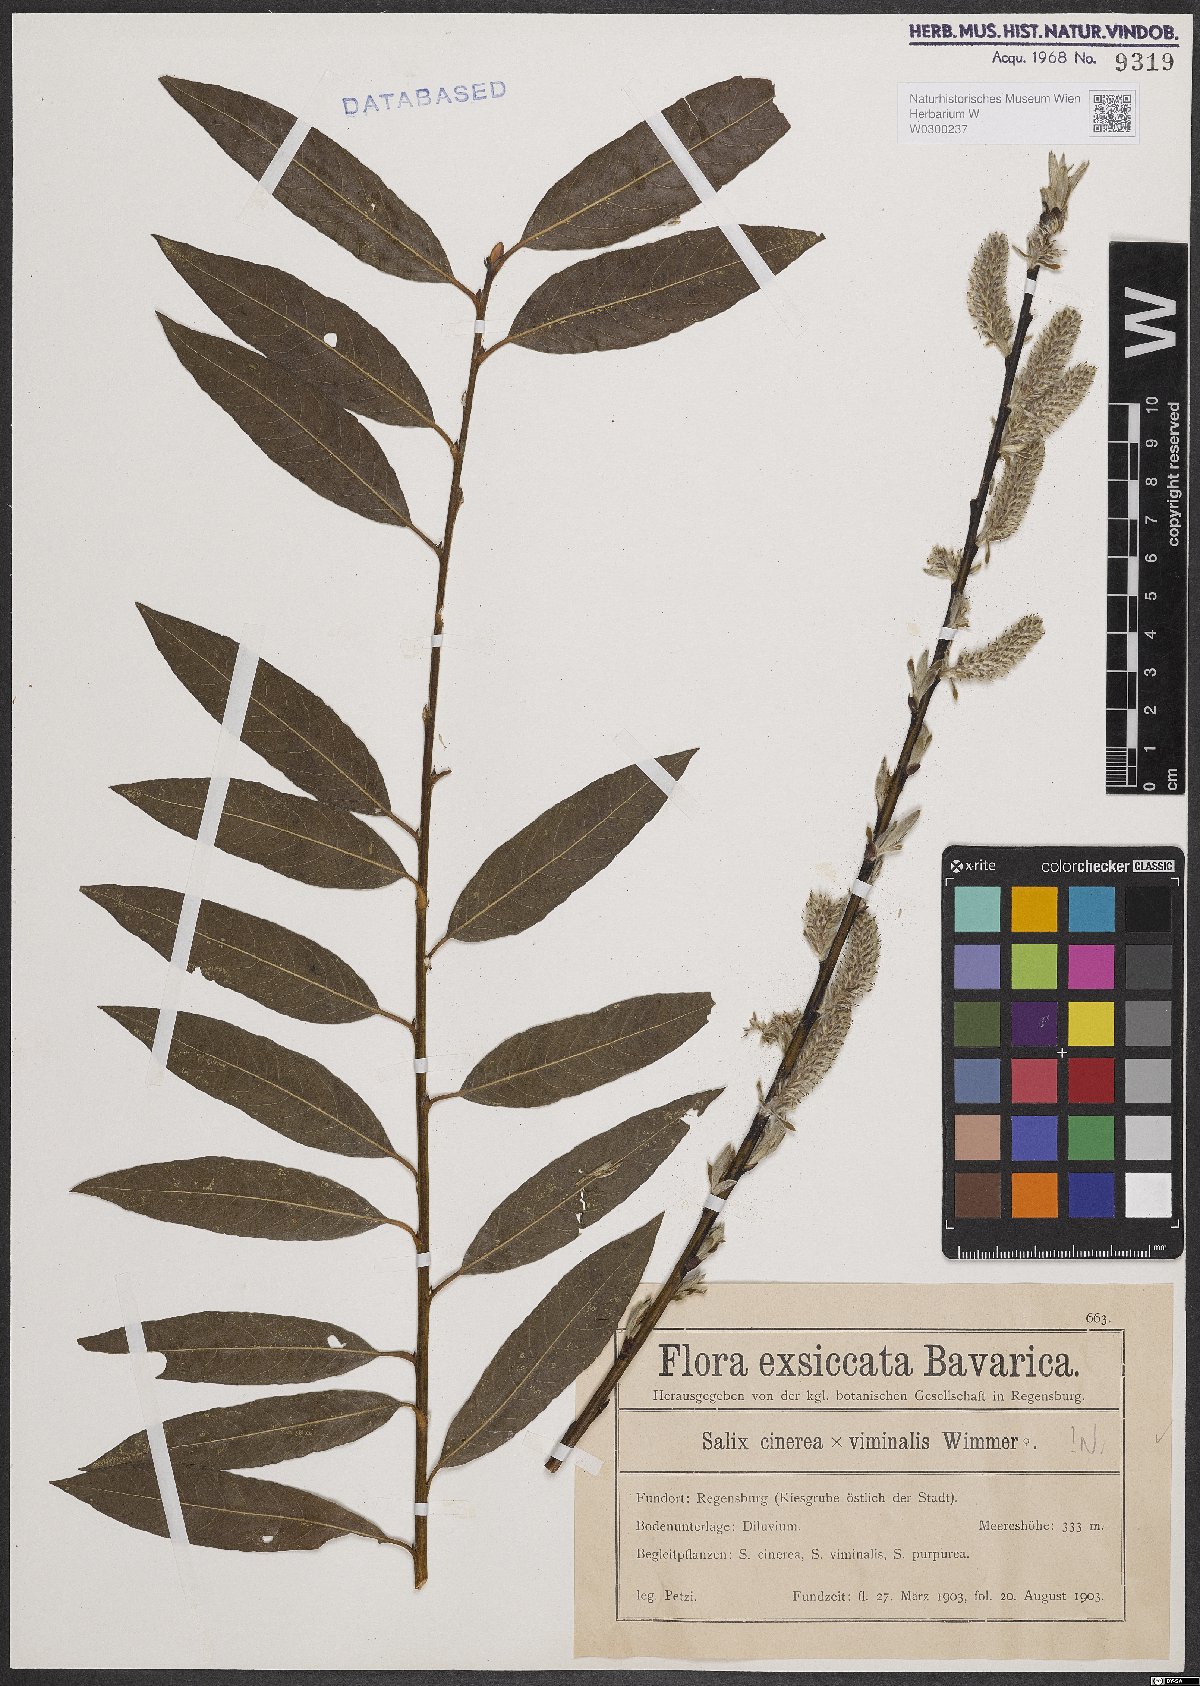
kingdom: Plantae
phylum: Tracheophyta
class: Magnoliopsida
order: Malpighiales
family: Salicaceae
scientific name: Salicaceae
